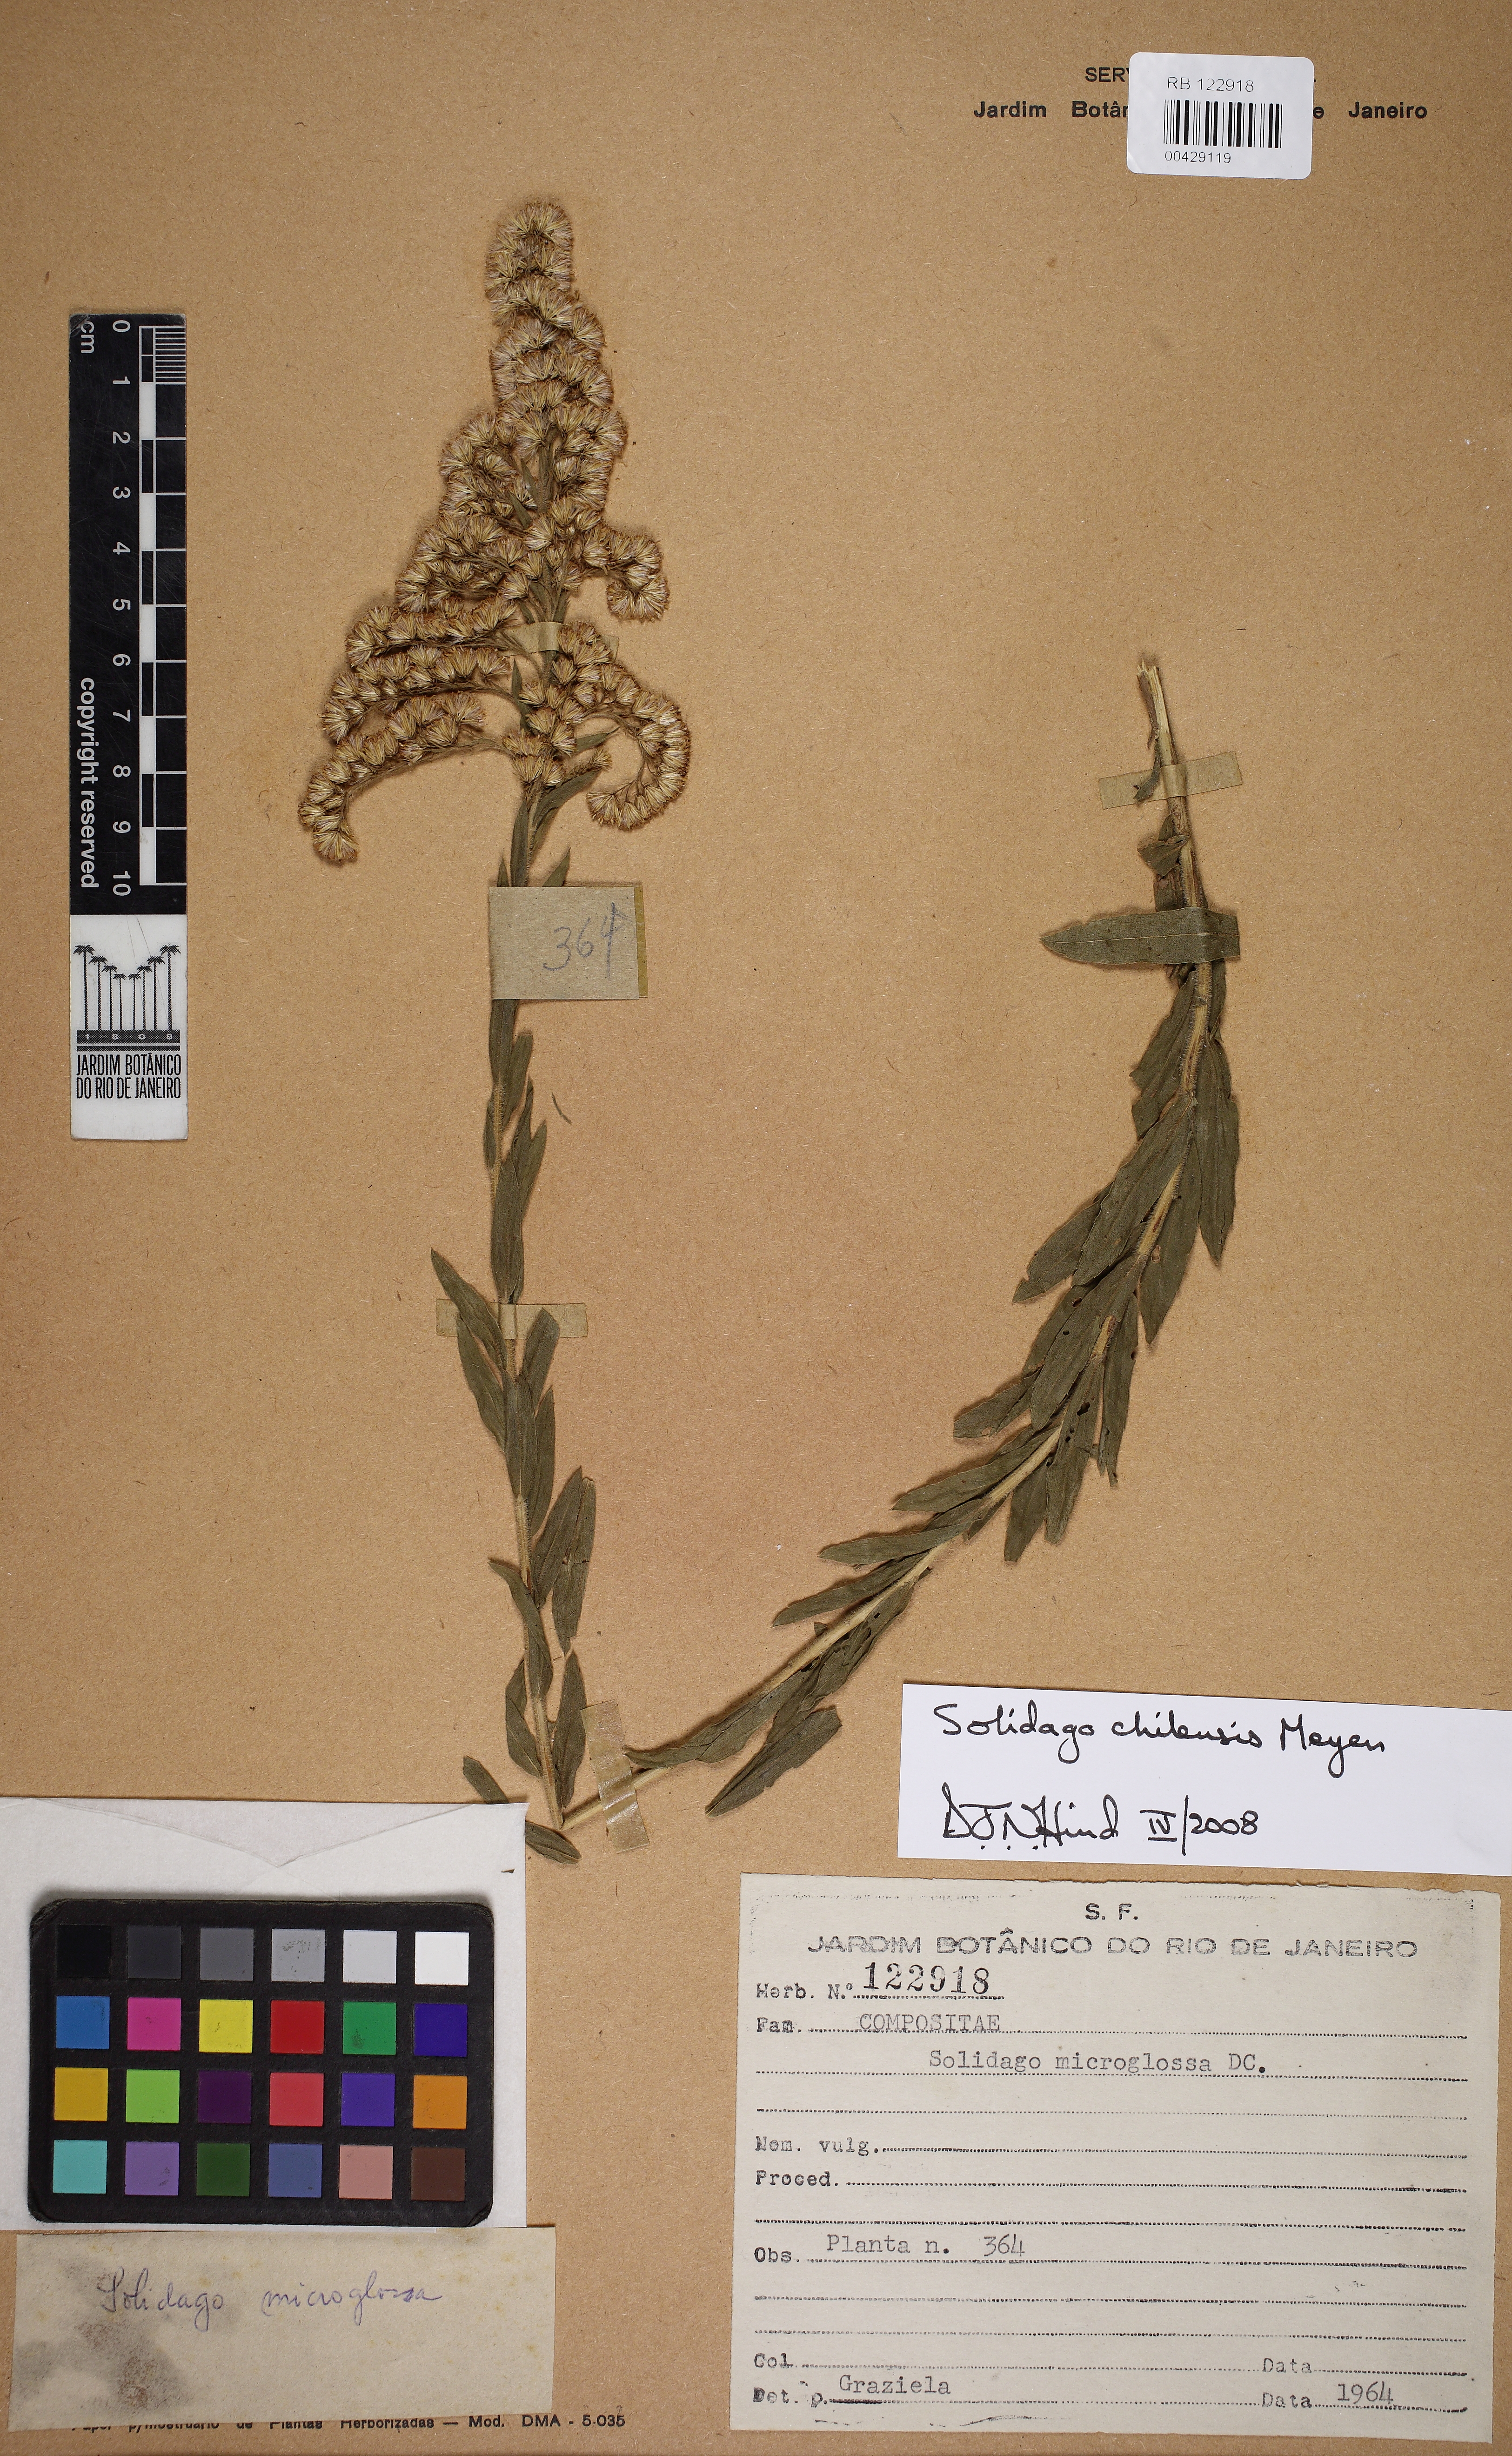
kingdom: Plantae
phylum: Tracheophyta
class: Magnoliopsida
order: Asterales
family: Asteraceae
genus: Solidago
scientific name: Solidago chilensis
